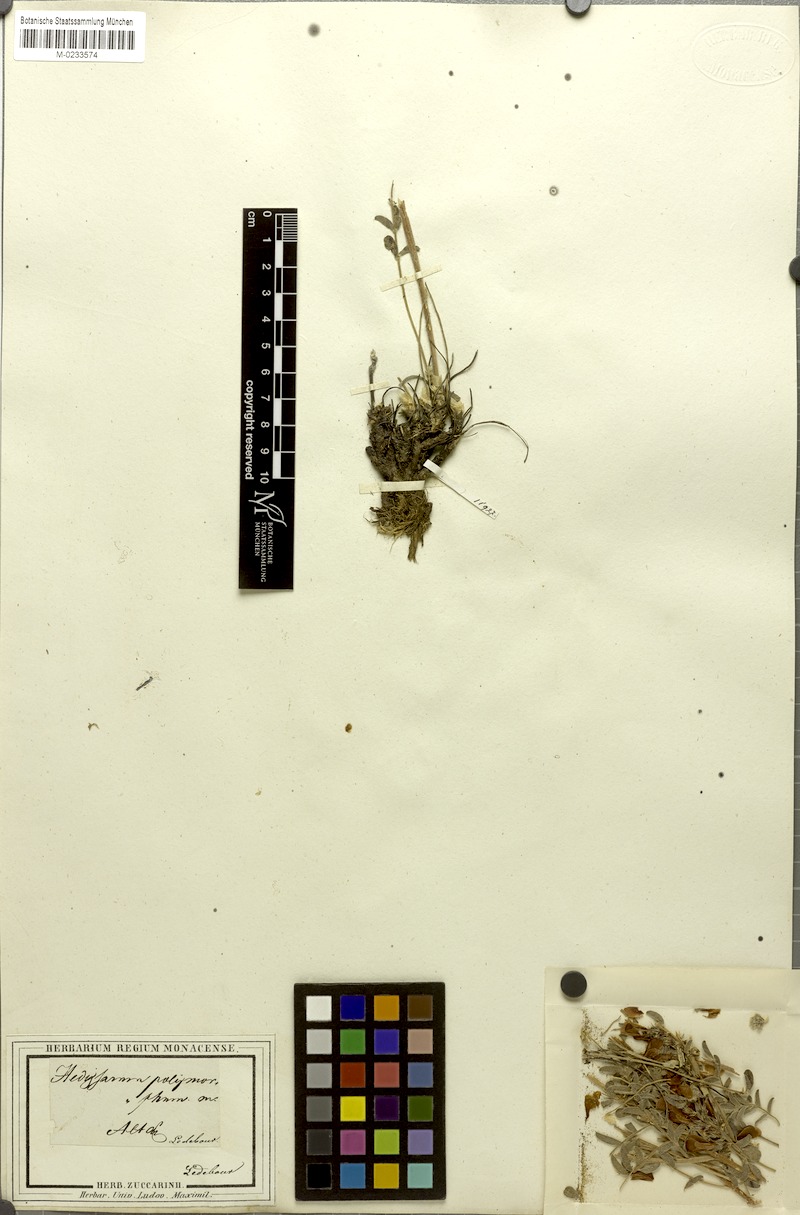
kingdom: Plantae
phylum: Tracheophyta
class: Magnoliopsida
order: Fabales
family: Fabaceae
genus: Hedysarum
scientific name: Hedysarum gmelinii
